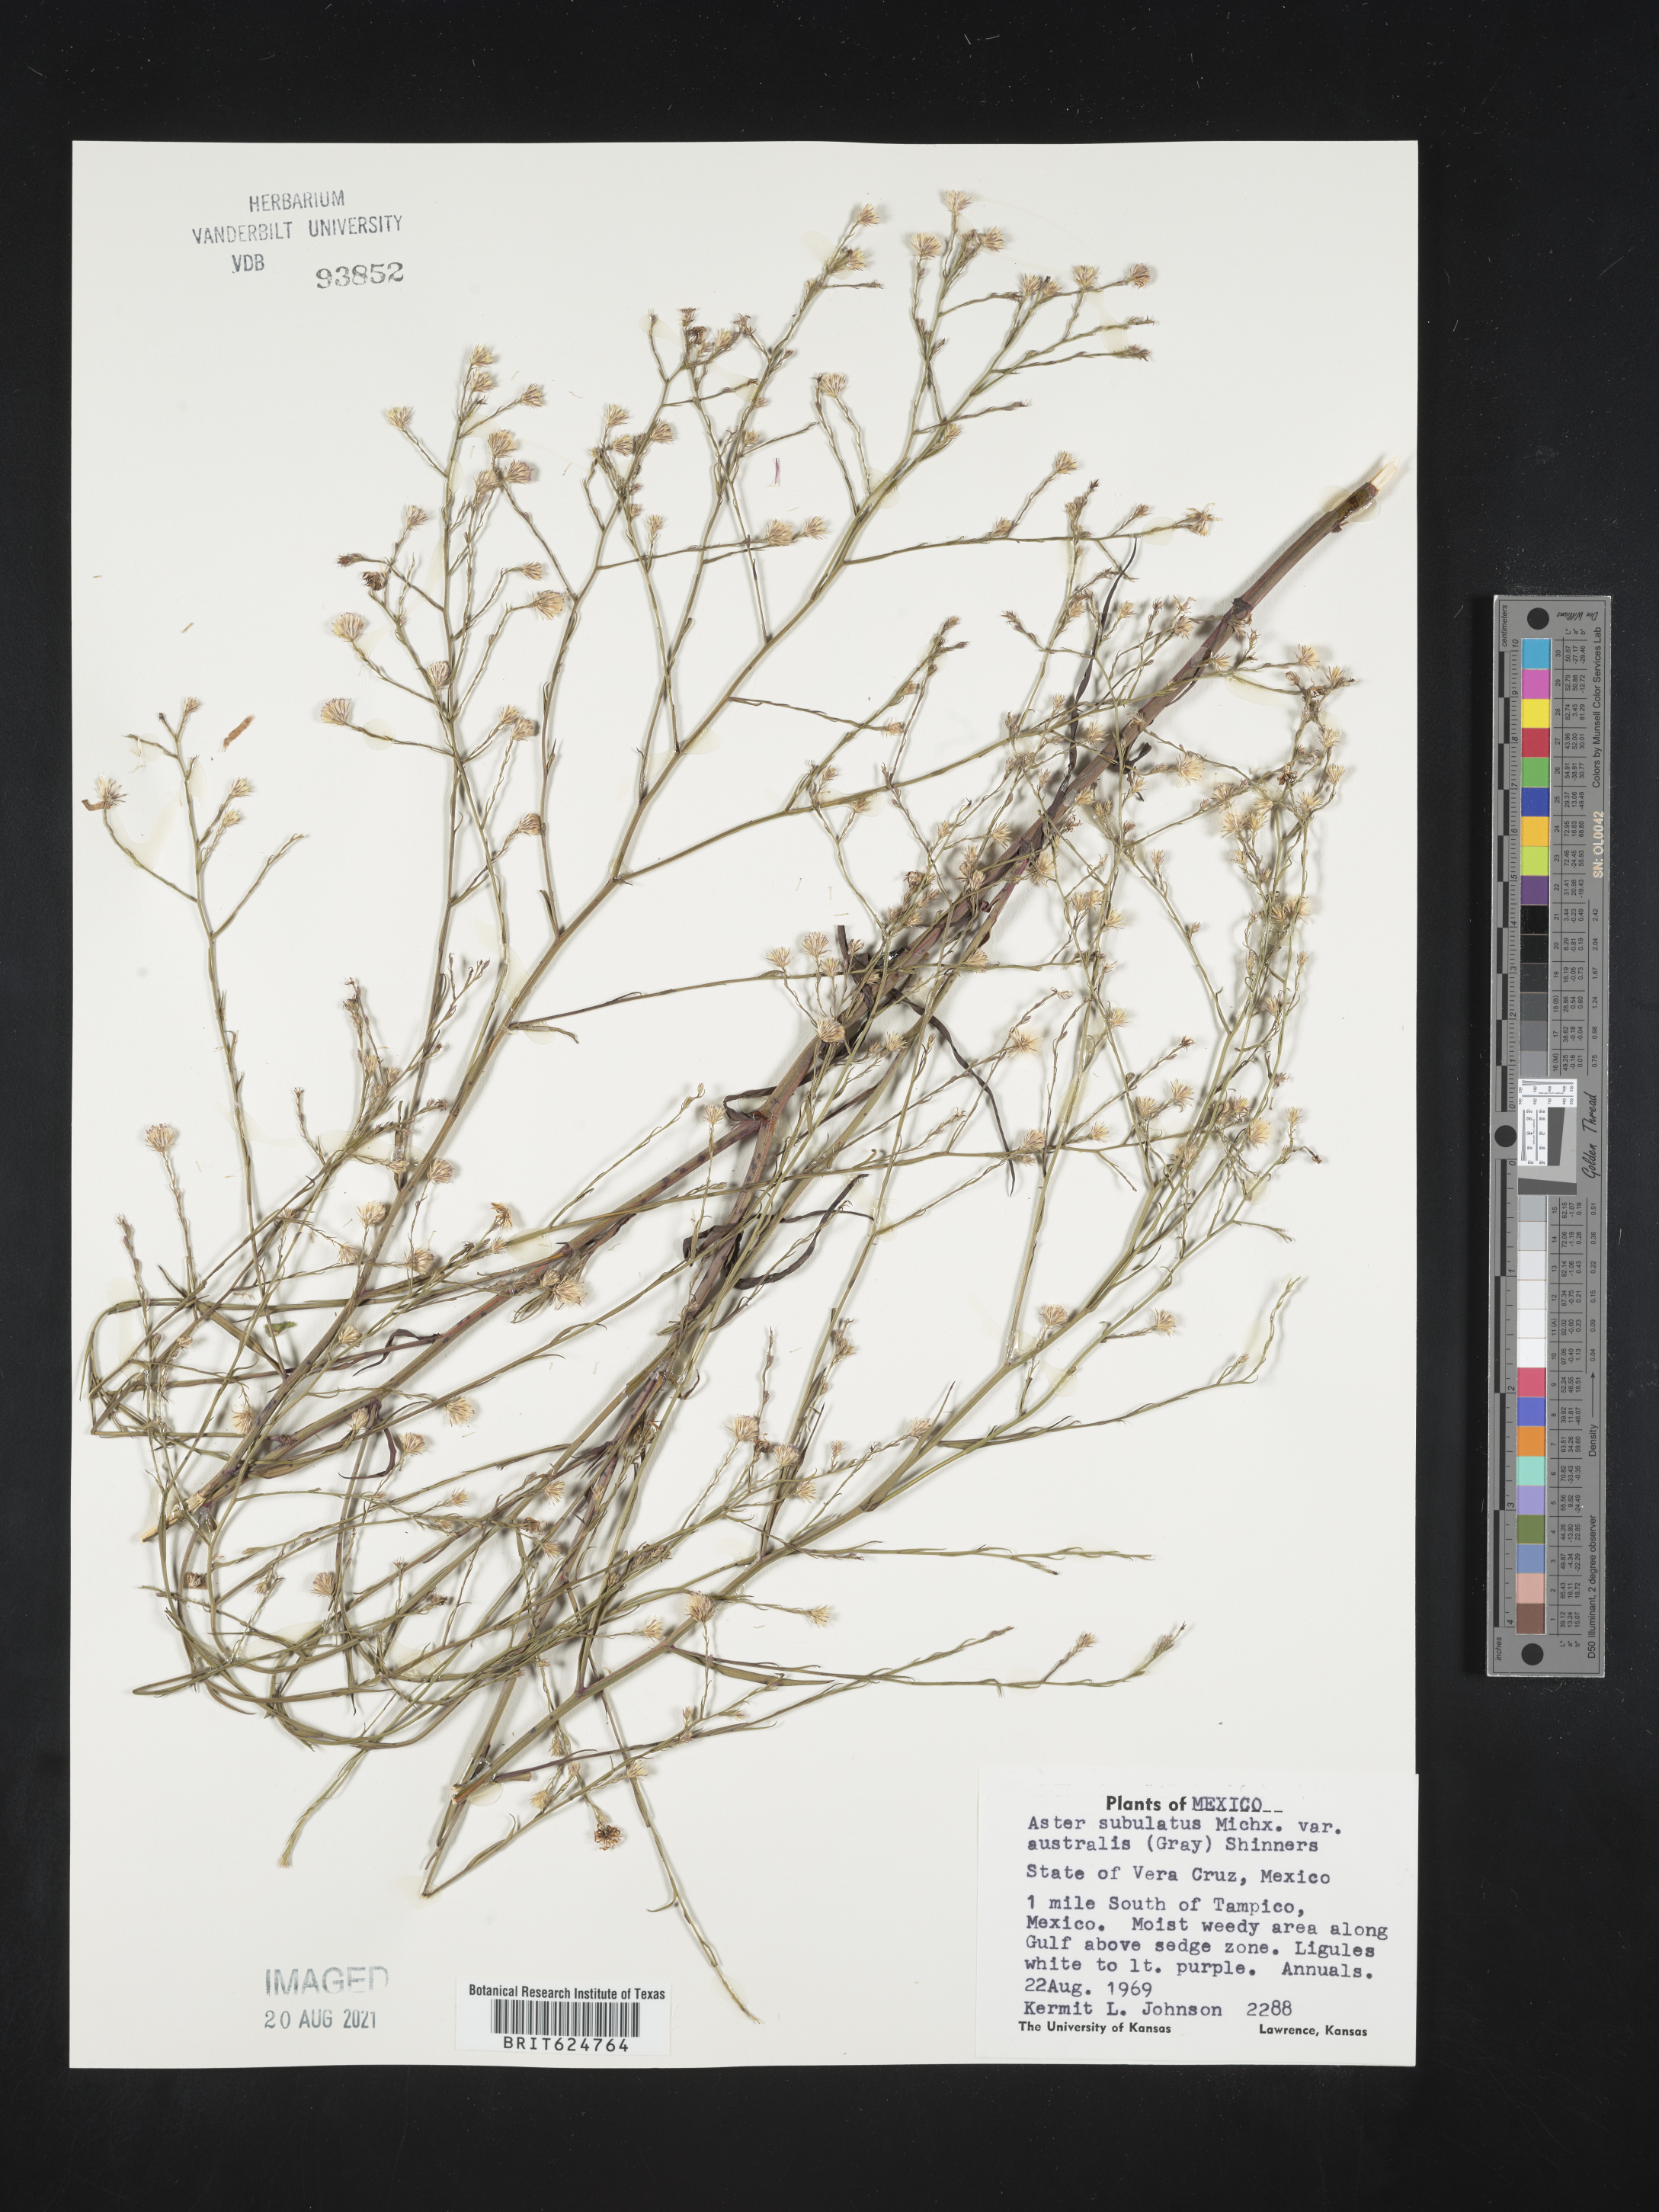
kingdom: Plantae
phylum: Tracheophyta
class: Magnoliopsida
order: Asterales
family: Asteraceae
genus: Aster
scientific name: Aster
